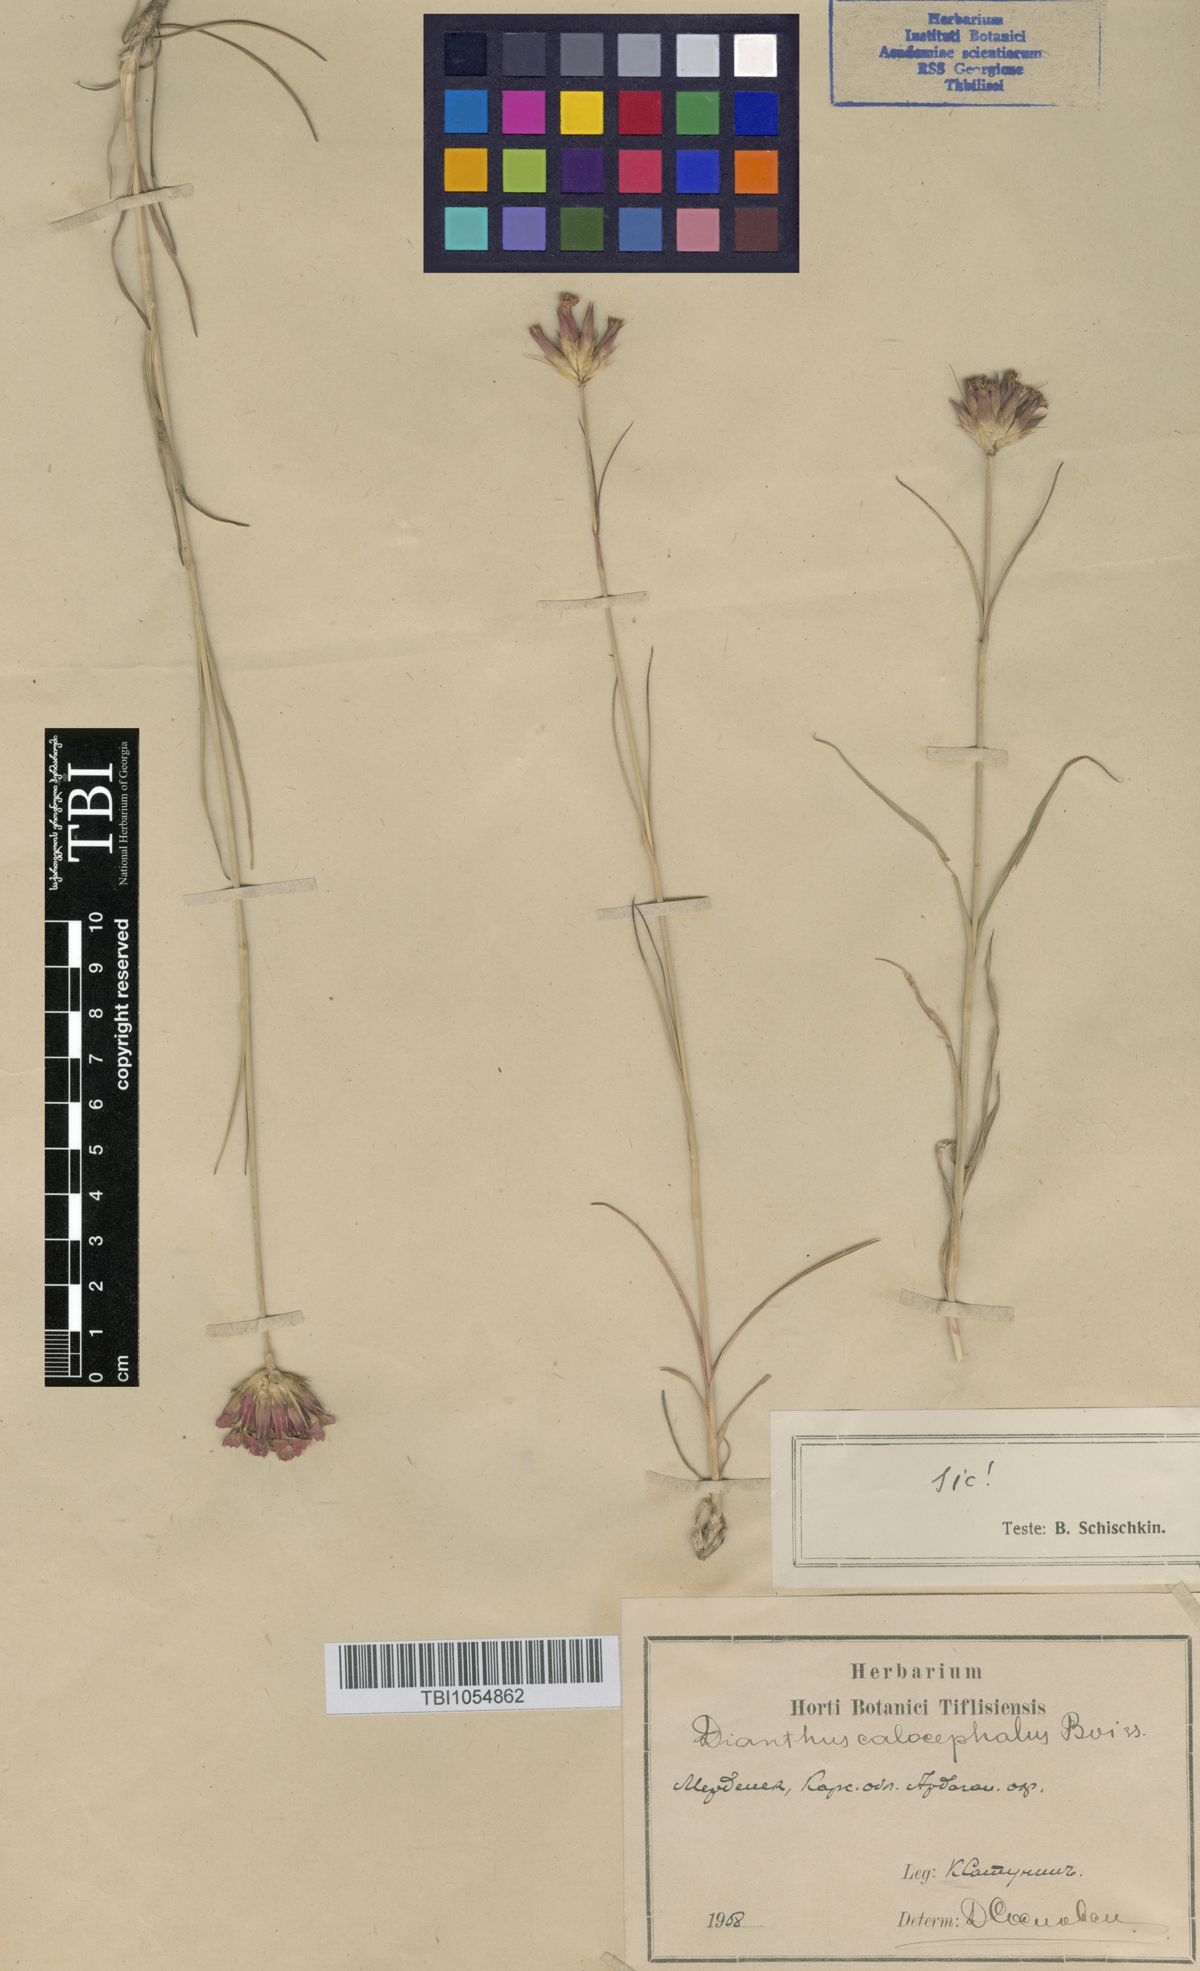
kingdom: Plantae
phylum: Tracheophyta
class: Magnoliopsida
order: Caryophyllales
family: Caryophyllaceae
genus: Dianthus
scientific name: Dianthus cruentus
